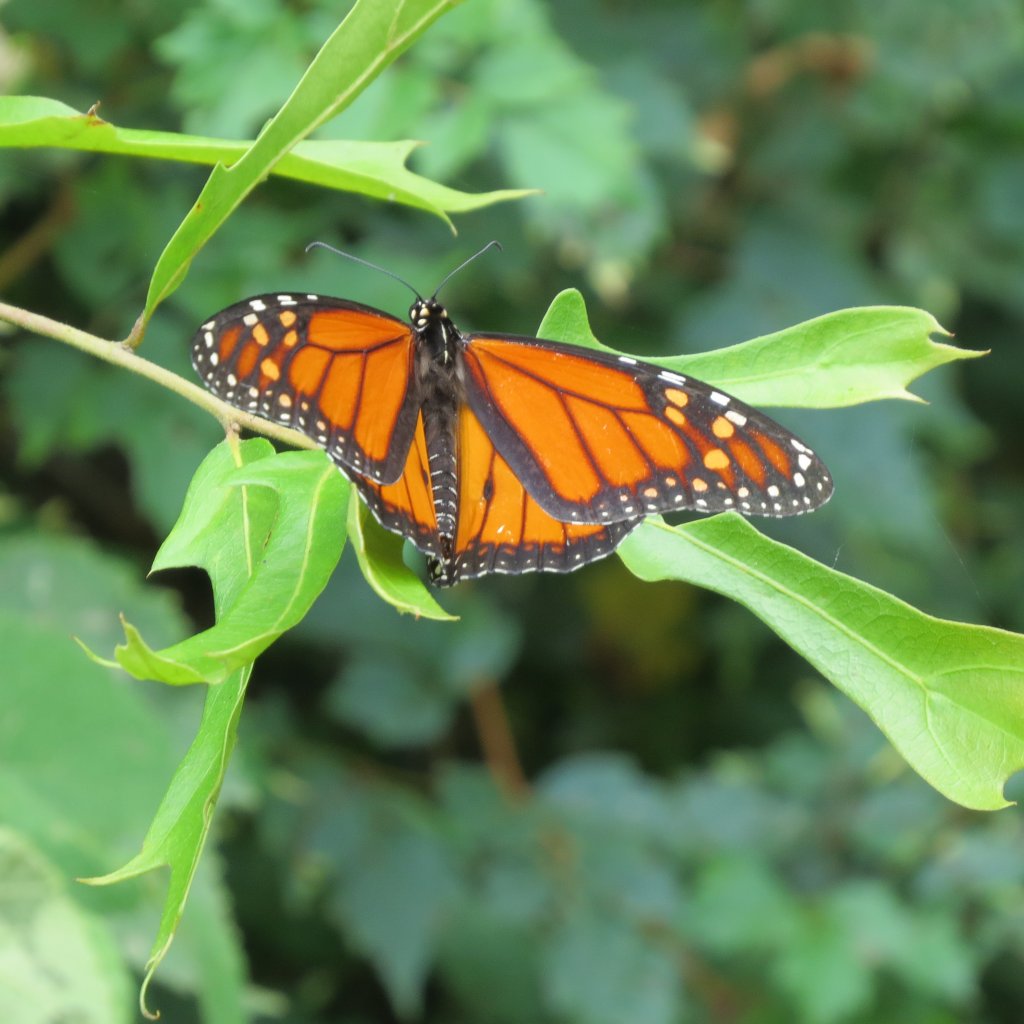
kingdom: Animalia
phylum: Arthropoda
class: Insecta
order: Lepidoptera
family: Nymphalidae
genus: Danaus
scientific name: Danaus plexippus
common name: Monarch
